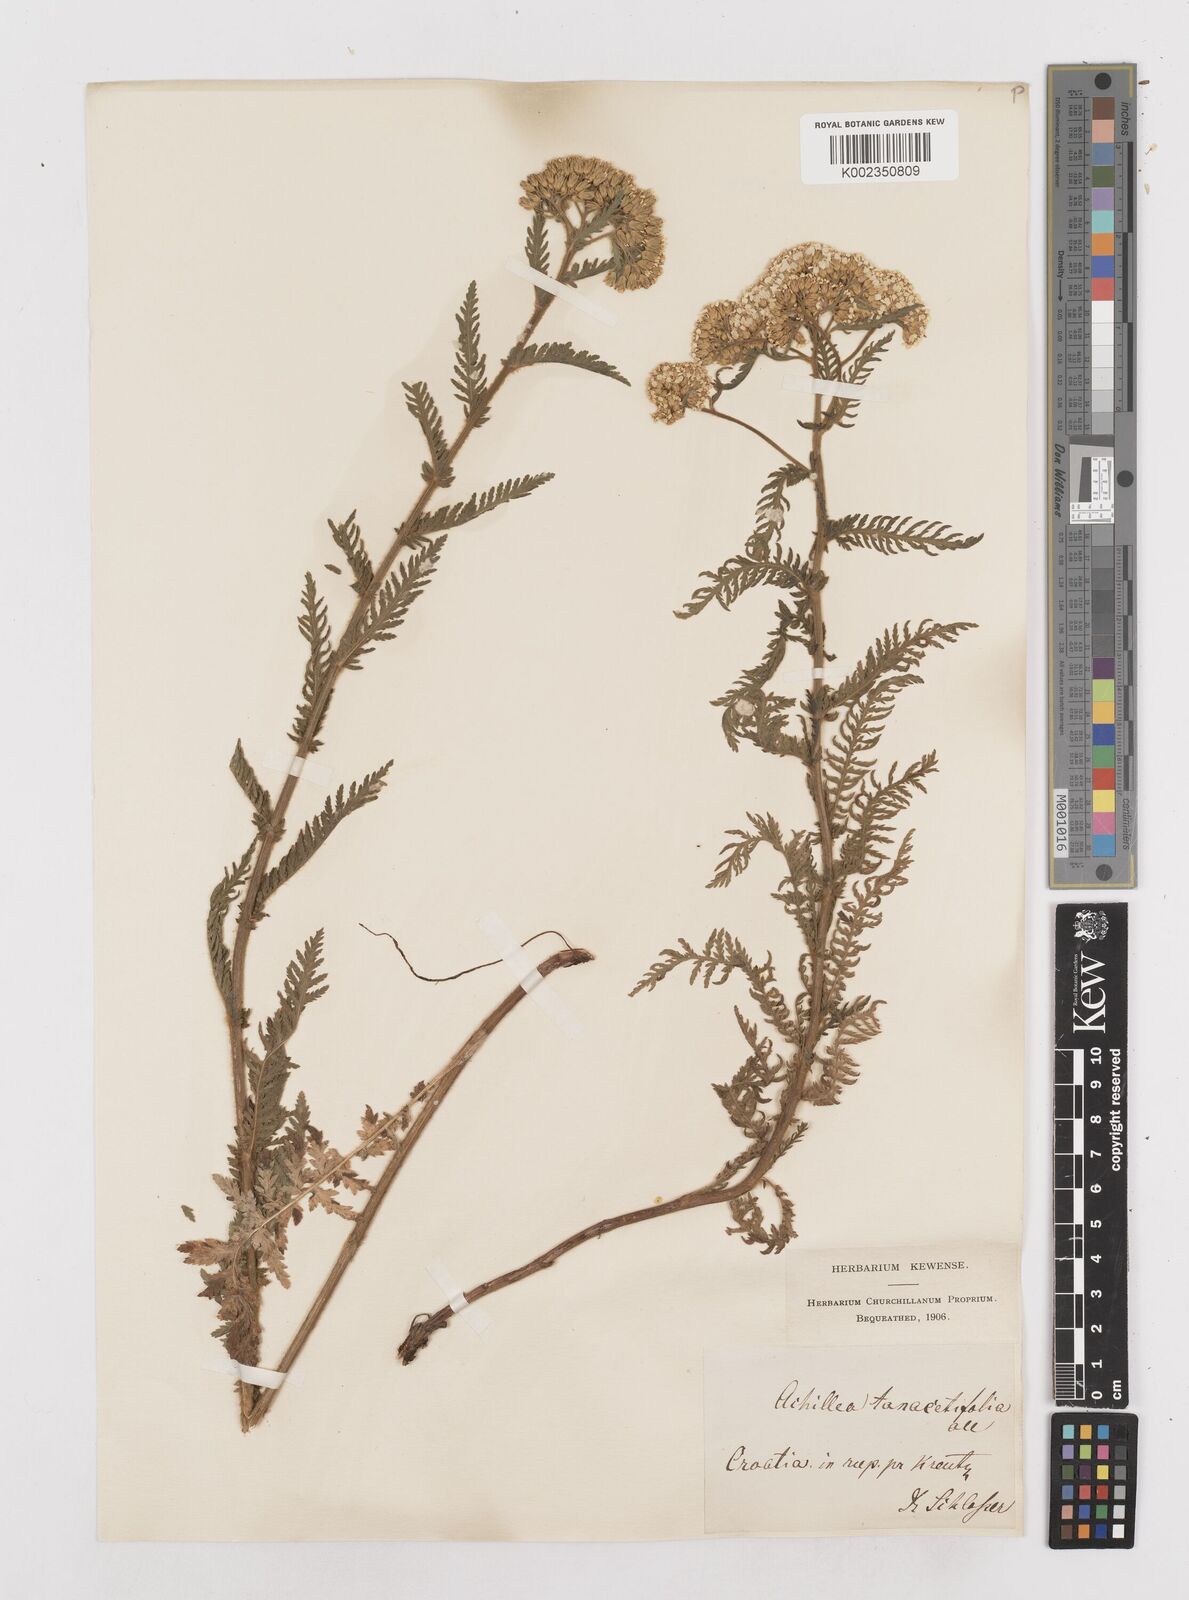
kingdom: Plantae
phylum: Tracheophyta
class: Magnoliopsida
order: Asterales
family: Asteraceae
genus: Achillea
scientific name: Achillea distans
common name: Tall yarrow
